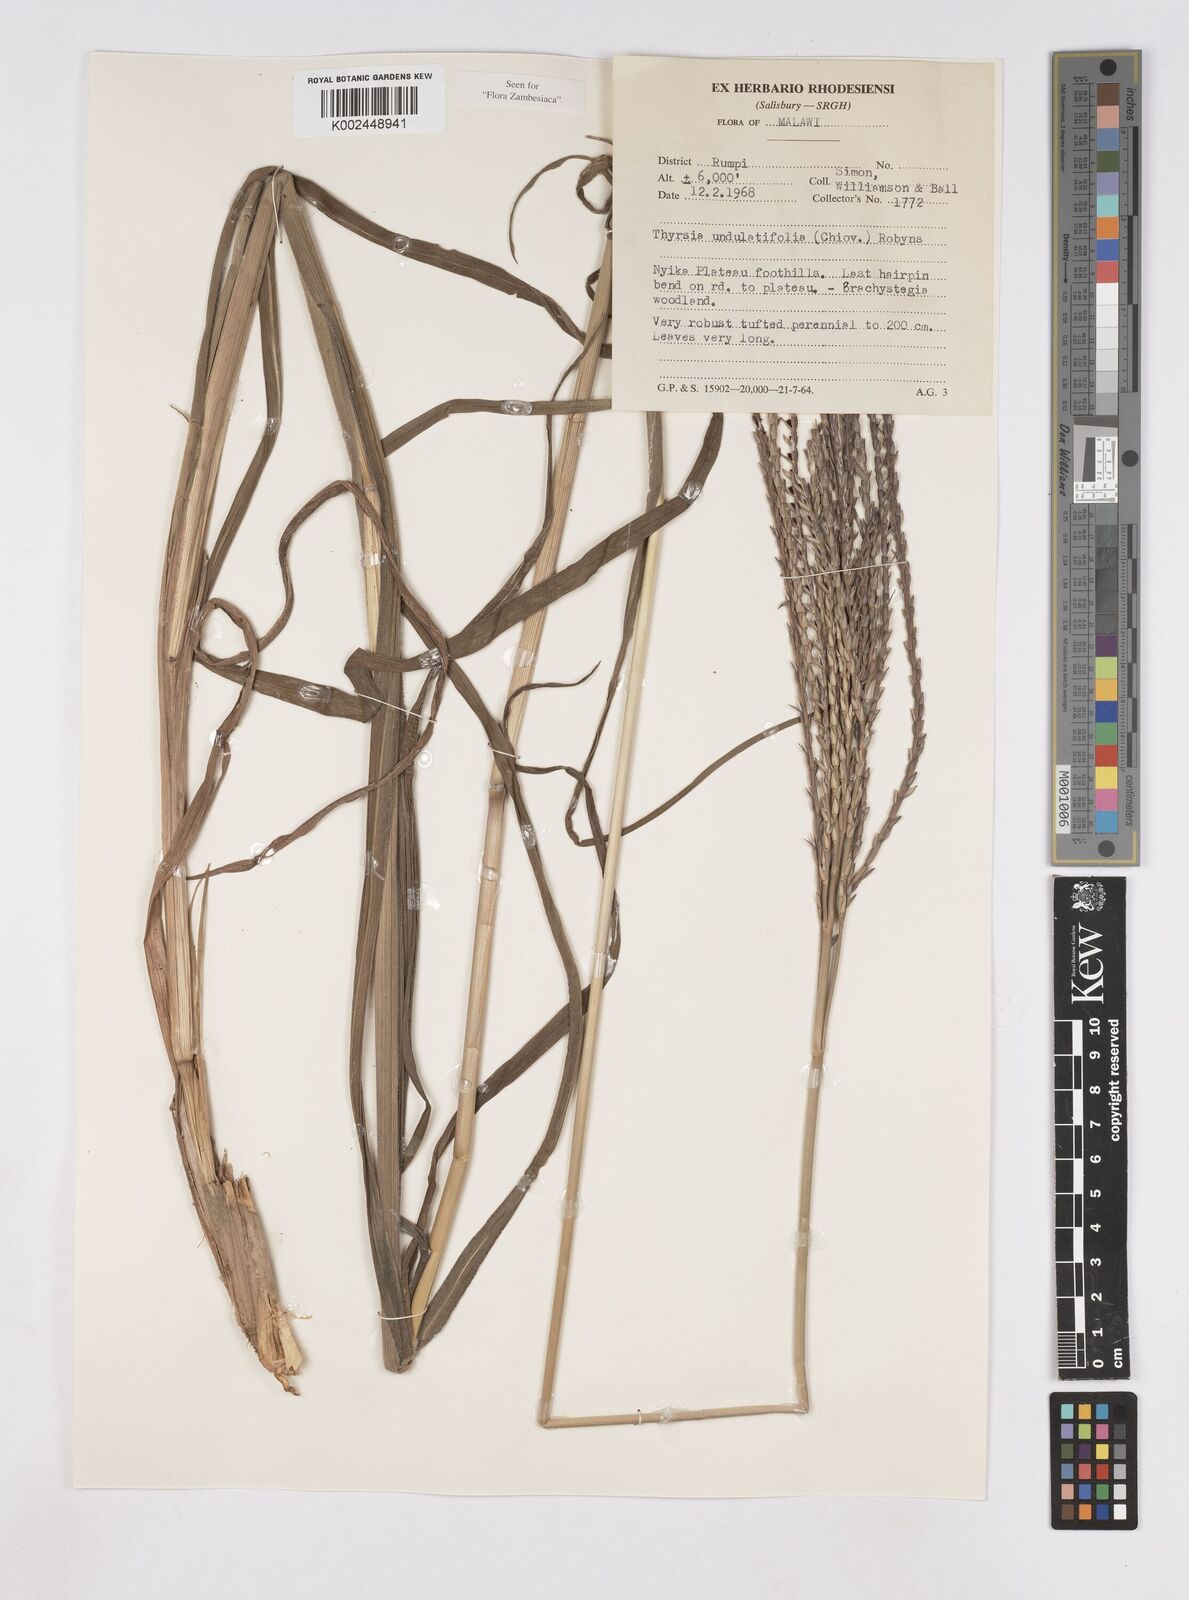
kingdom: Plantae
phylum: Tracheophyta
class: Liliopsida
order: Poales
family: Poaceae
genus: Thyrsia
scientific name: Thyrsia huillensis
